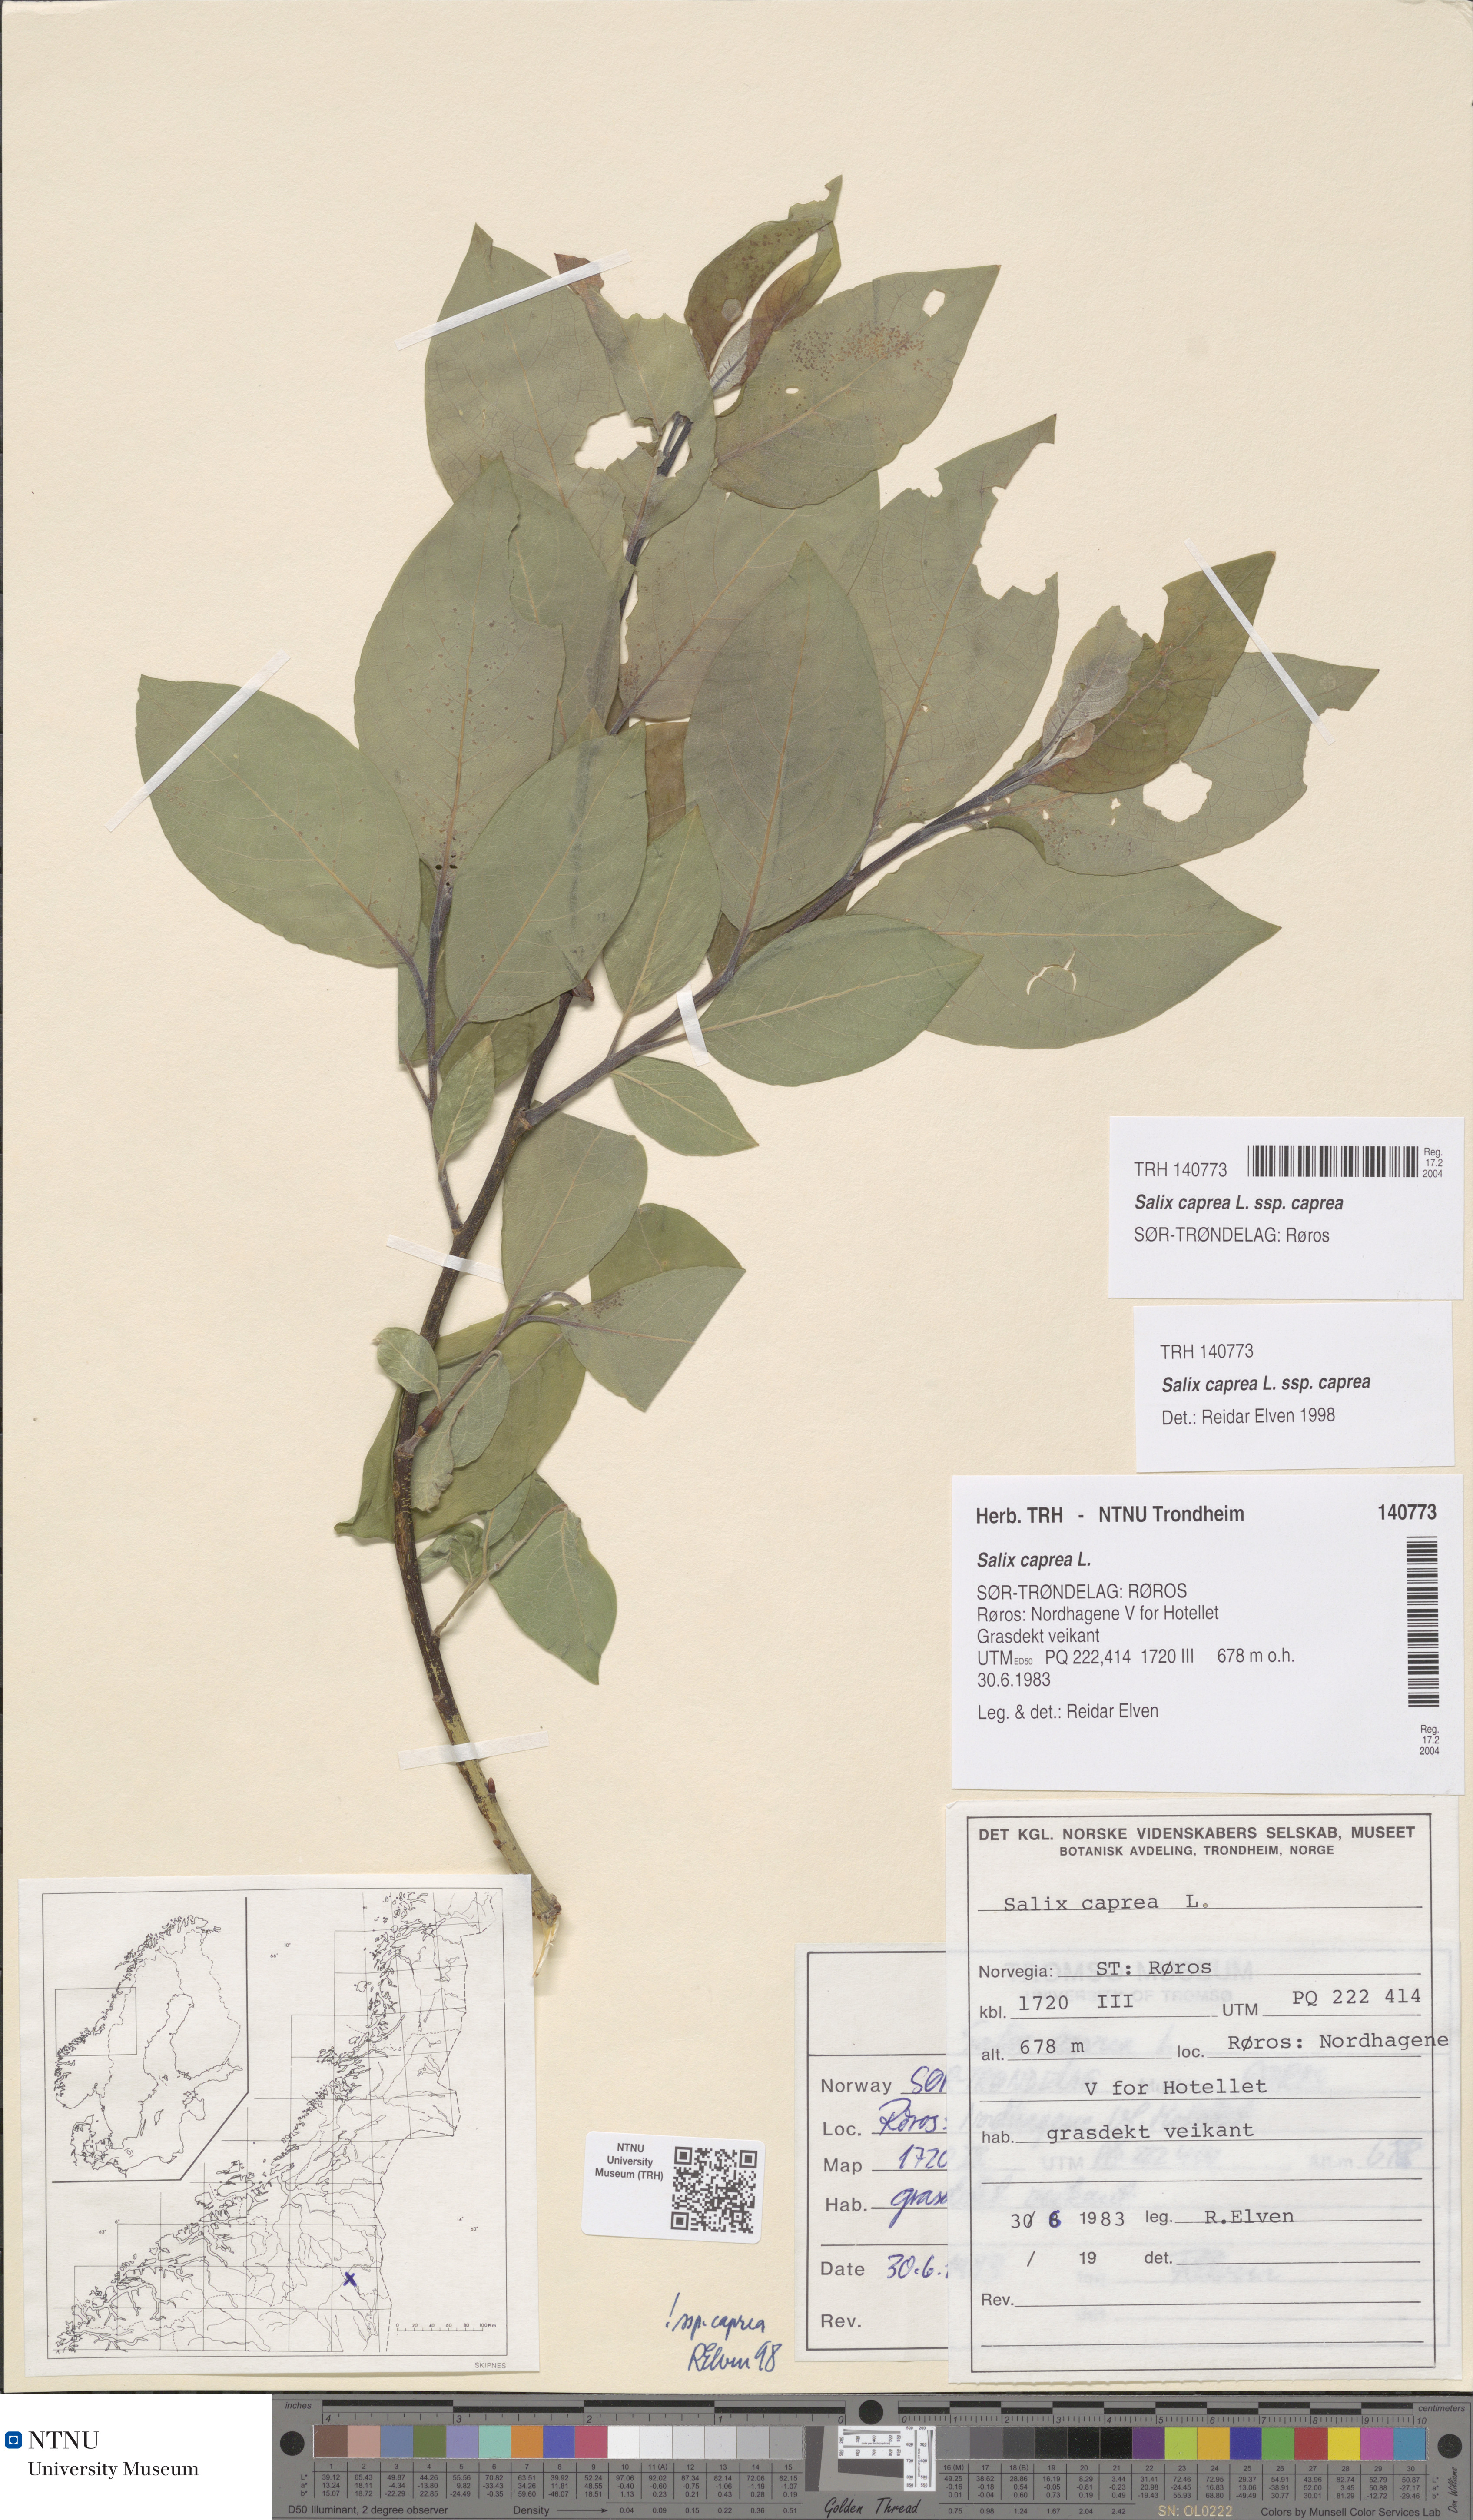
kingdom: Plantae
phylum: Tracheophyta
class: Magnoliopsida
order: Malpighiales
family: Salicaceae
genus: Salix
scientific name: Salix caprea
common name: Goat willow
